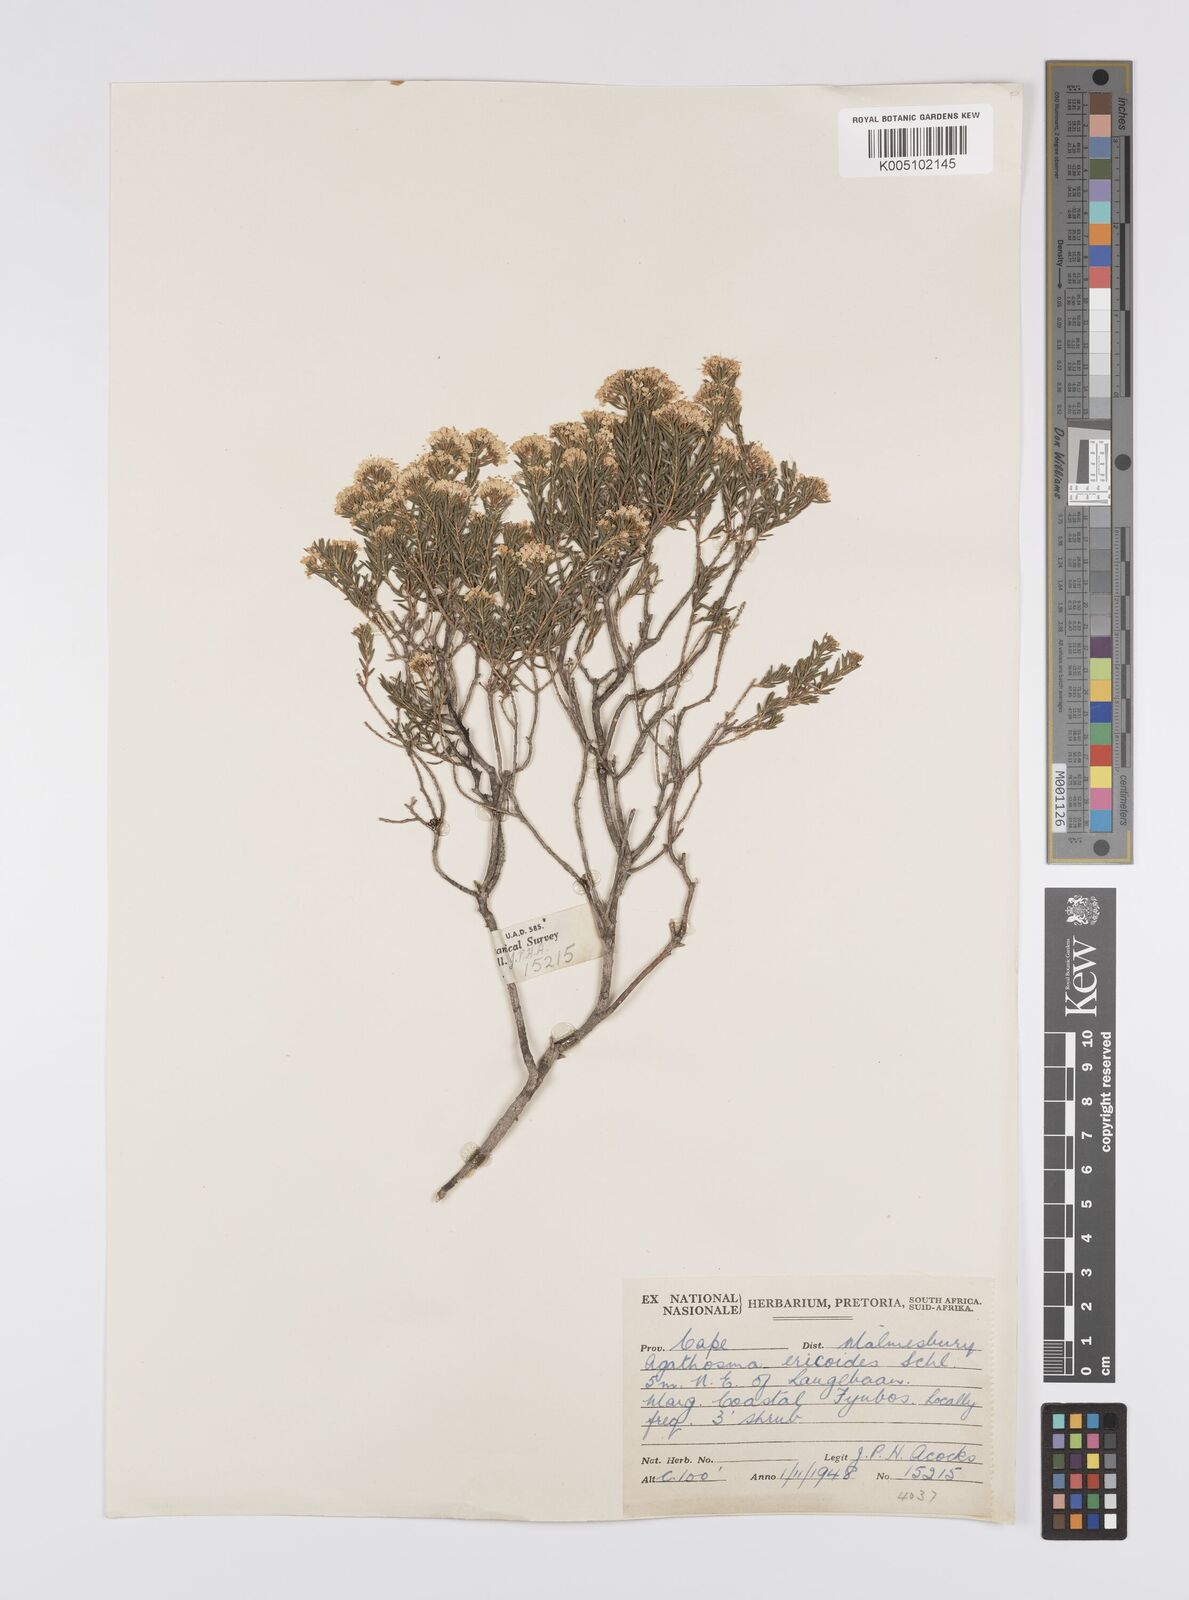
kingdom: Plantae
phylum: Tracheophyta
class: Magnoliopsida
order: Sapindales
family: Rutaceae
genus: Agathosma
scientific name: Agathosma capensis
